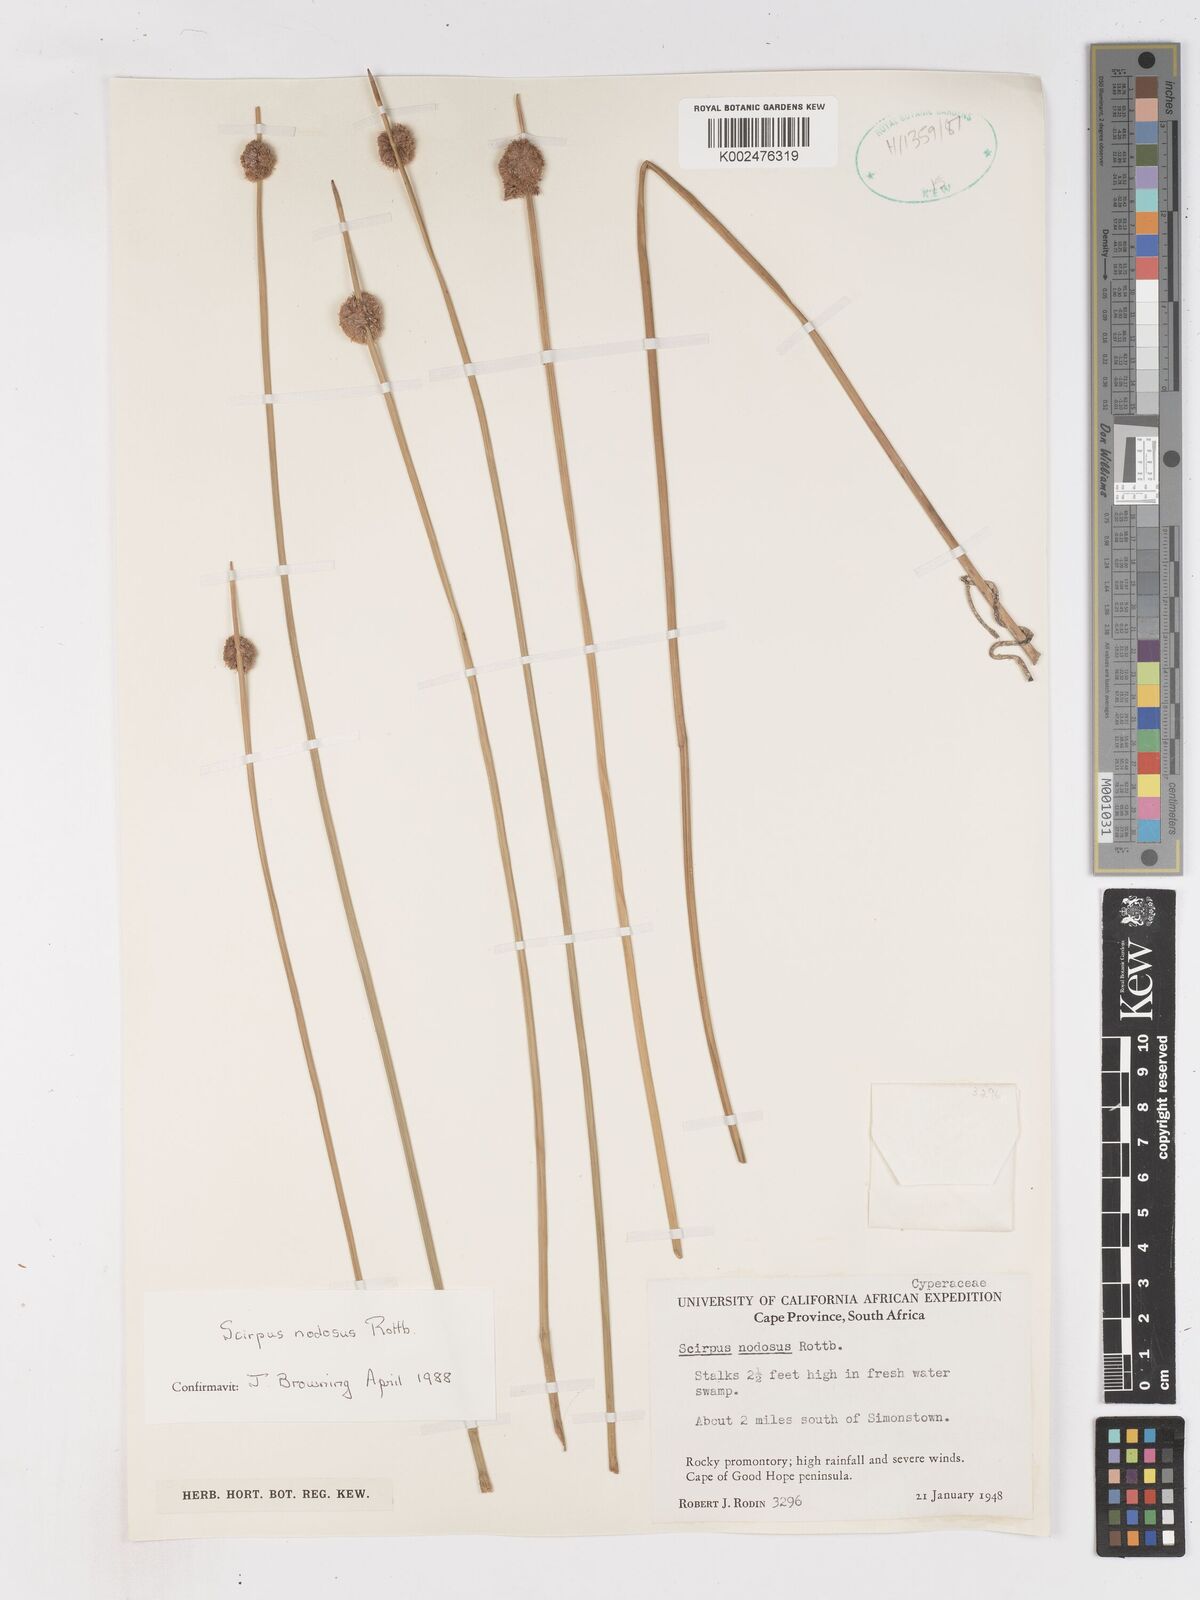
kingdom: Plantae
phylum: Tracheophyta
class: Liliopsida
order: Poales
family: Cyperaceae
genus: Ficinia
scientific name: Ficinia nodosa
